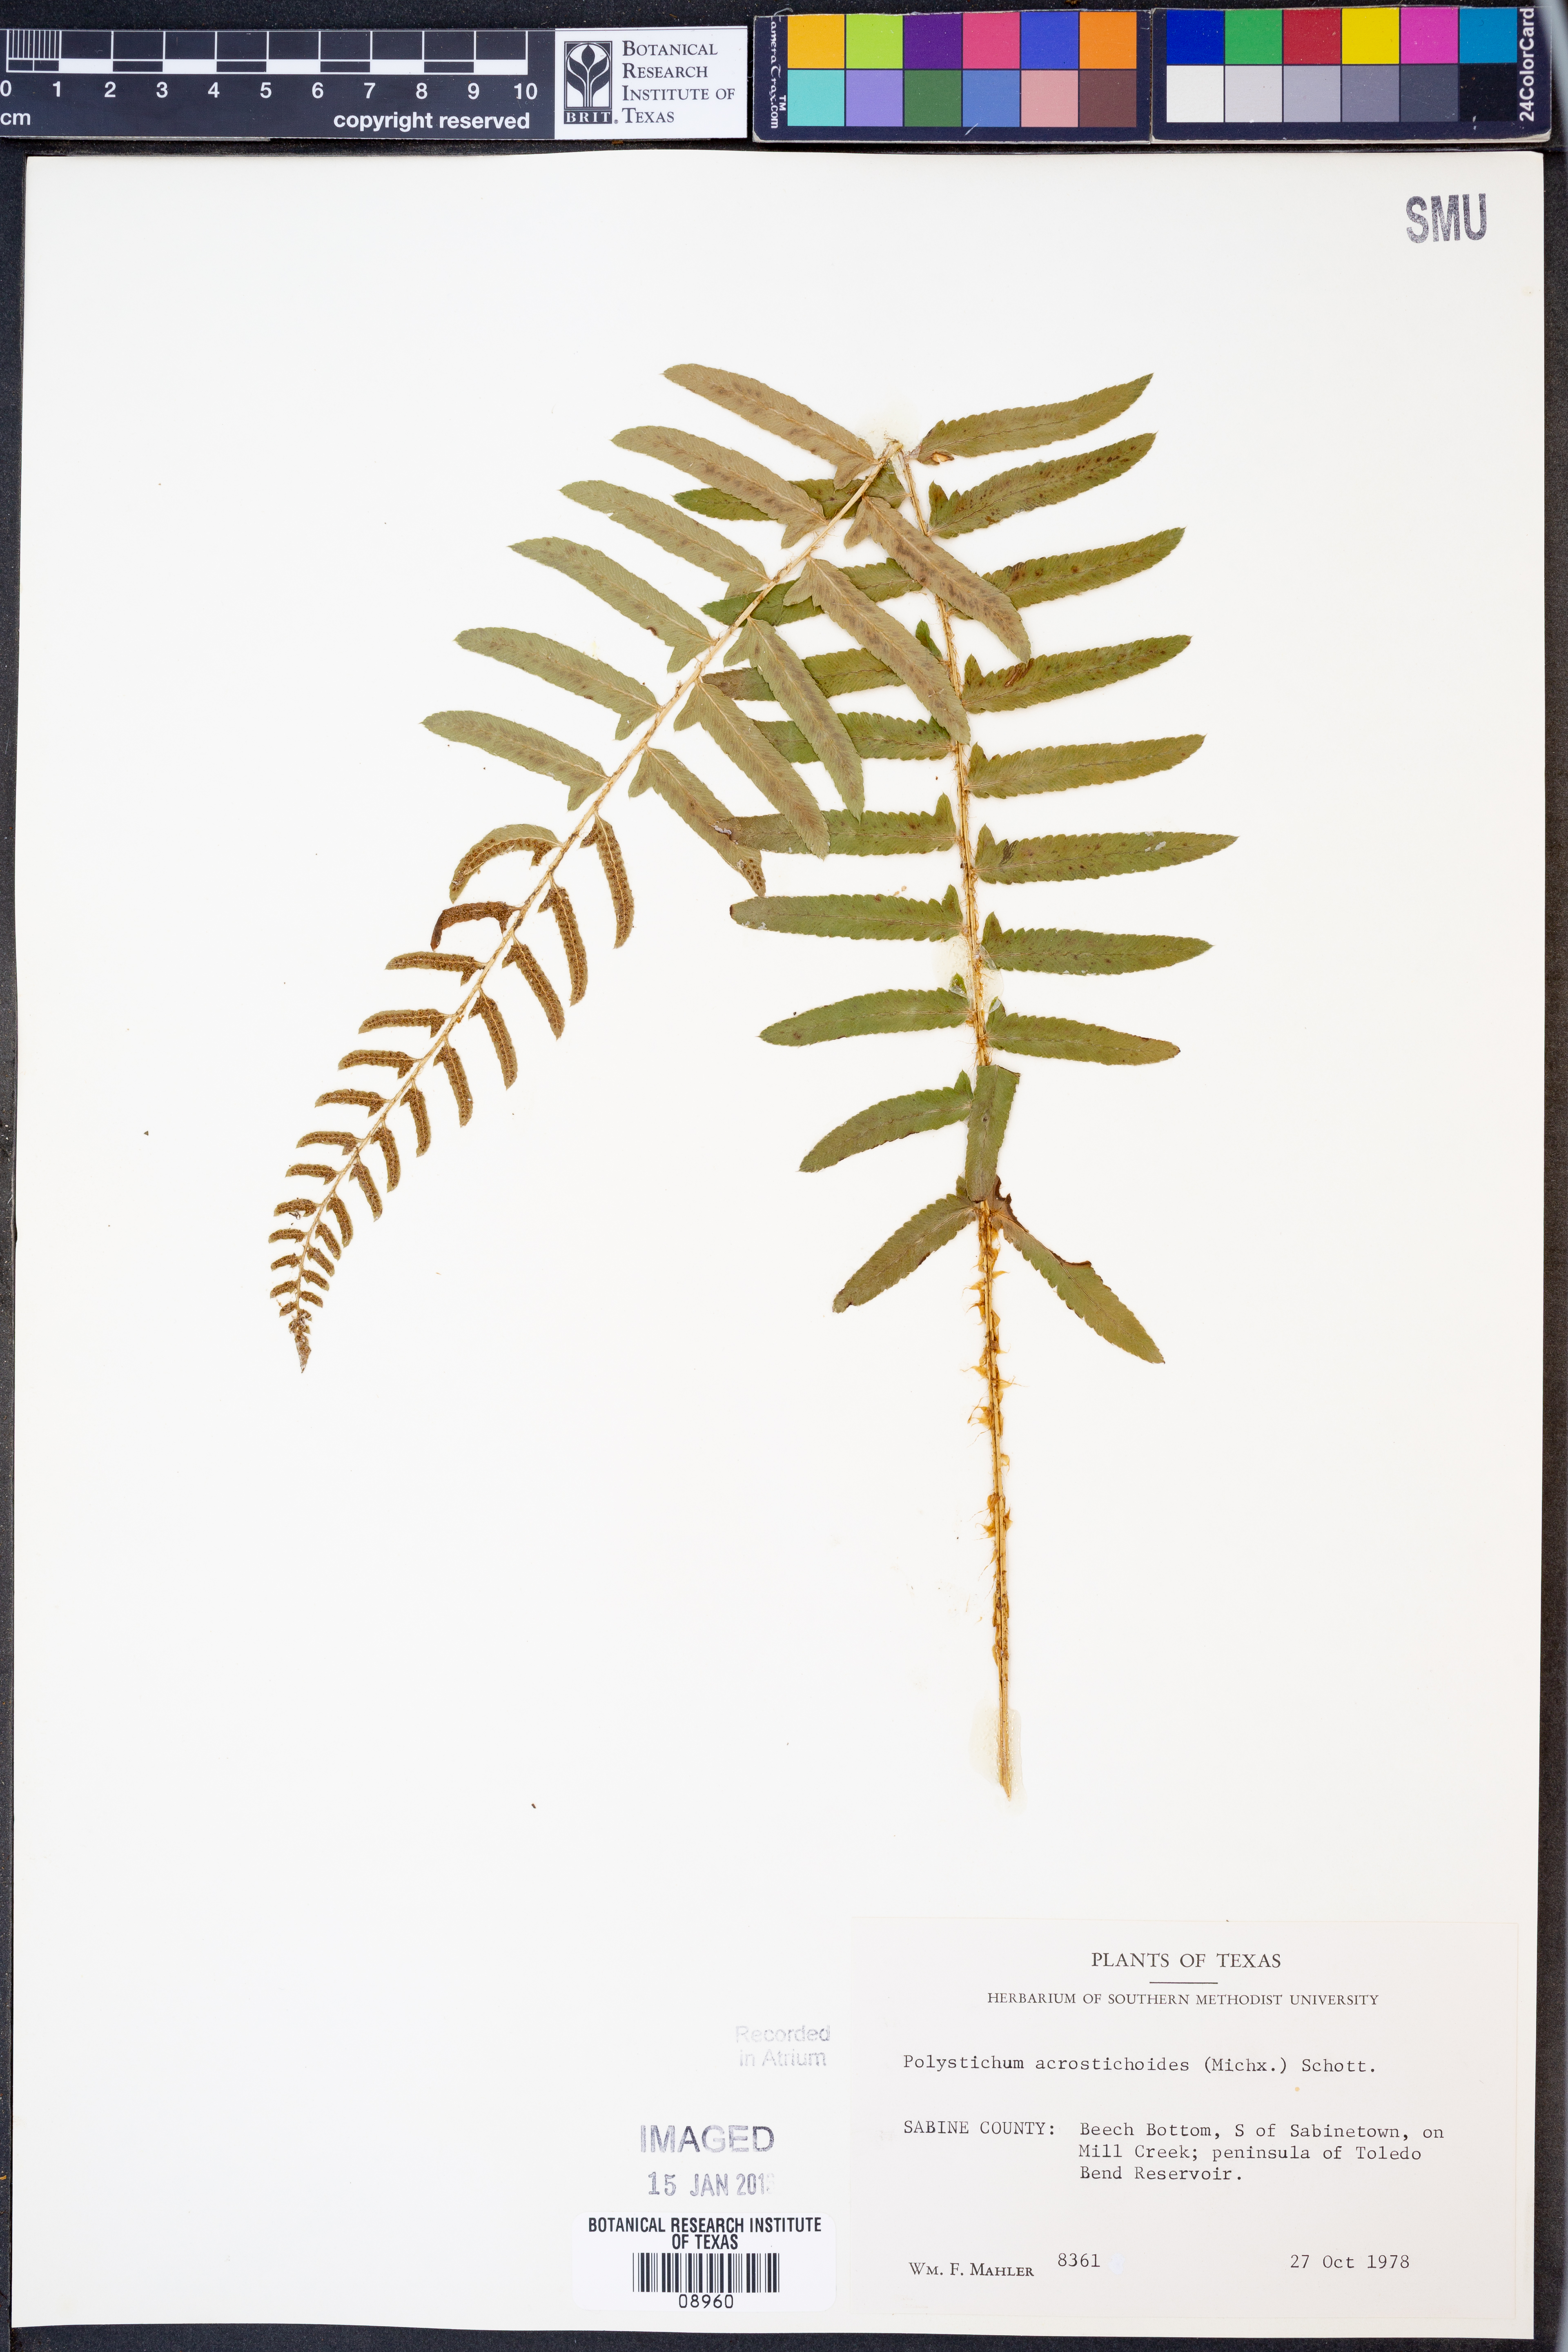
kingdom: Plantae
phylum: Tracheophyta
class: Polypodiopsida
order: Polypodiales
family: Dryopteridaceae
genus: Polystichum
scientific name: Polystichum acrostichoides
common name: Christmas fern
